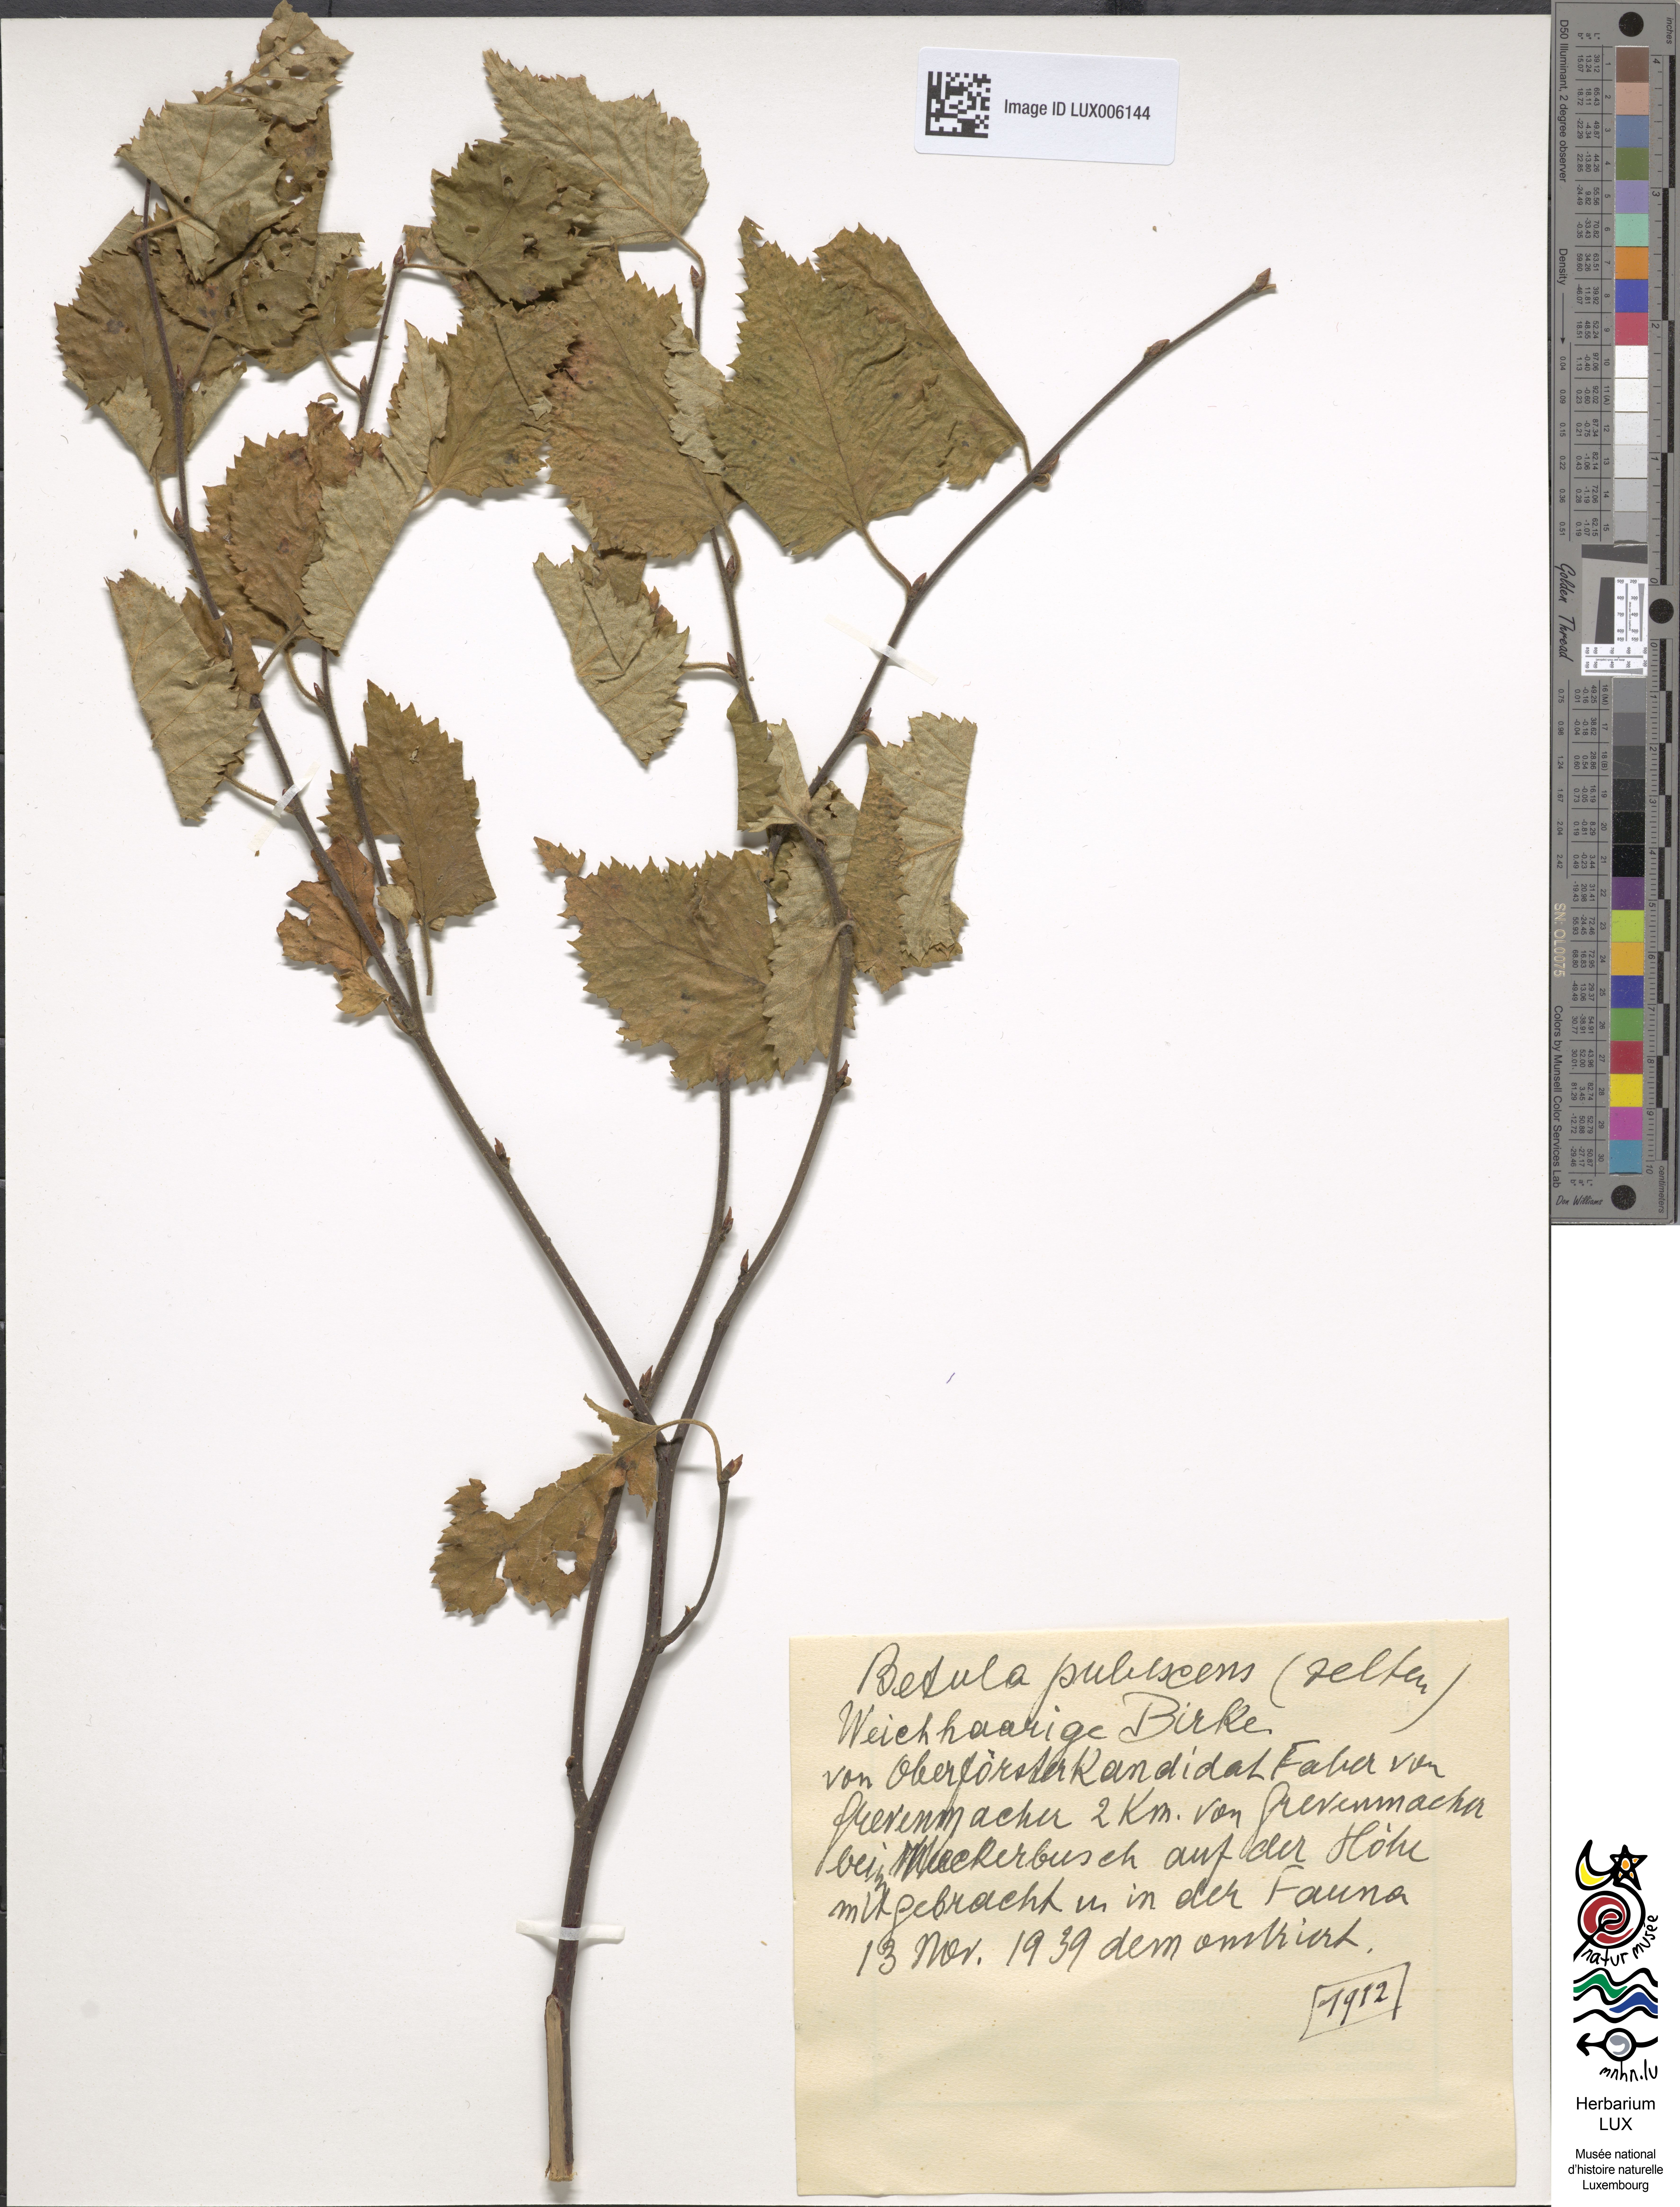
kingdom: Plantae
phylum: Tracheophyta
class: Magnoliopsida
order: Fagales
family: Betulaceae
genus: Betula
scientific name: Betula pubescens
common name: Downy birch
